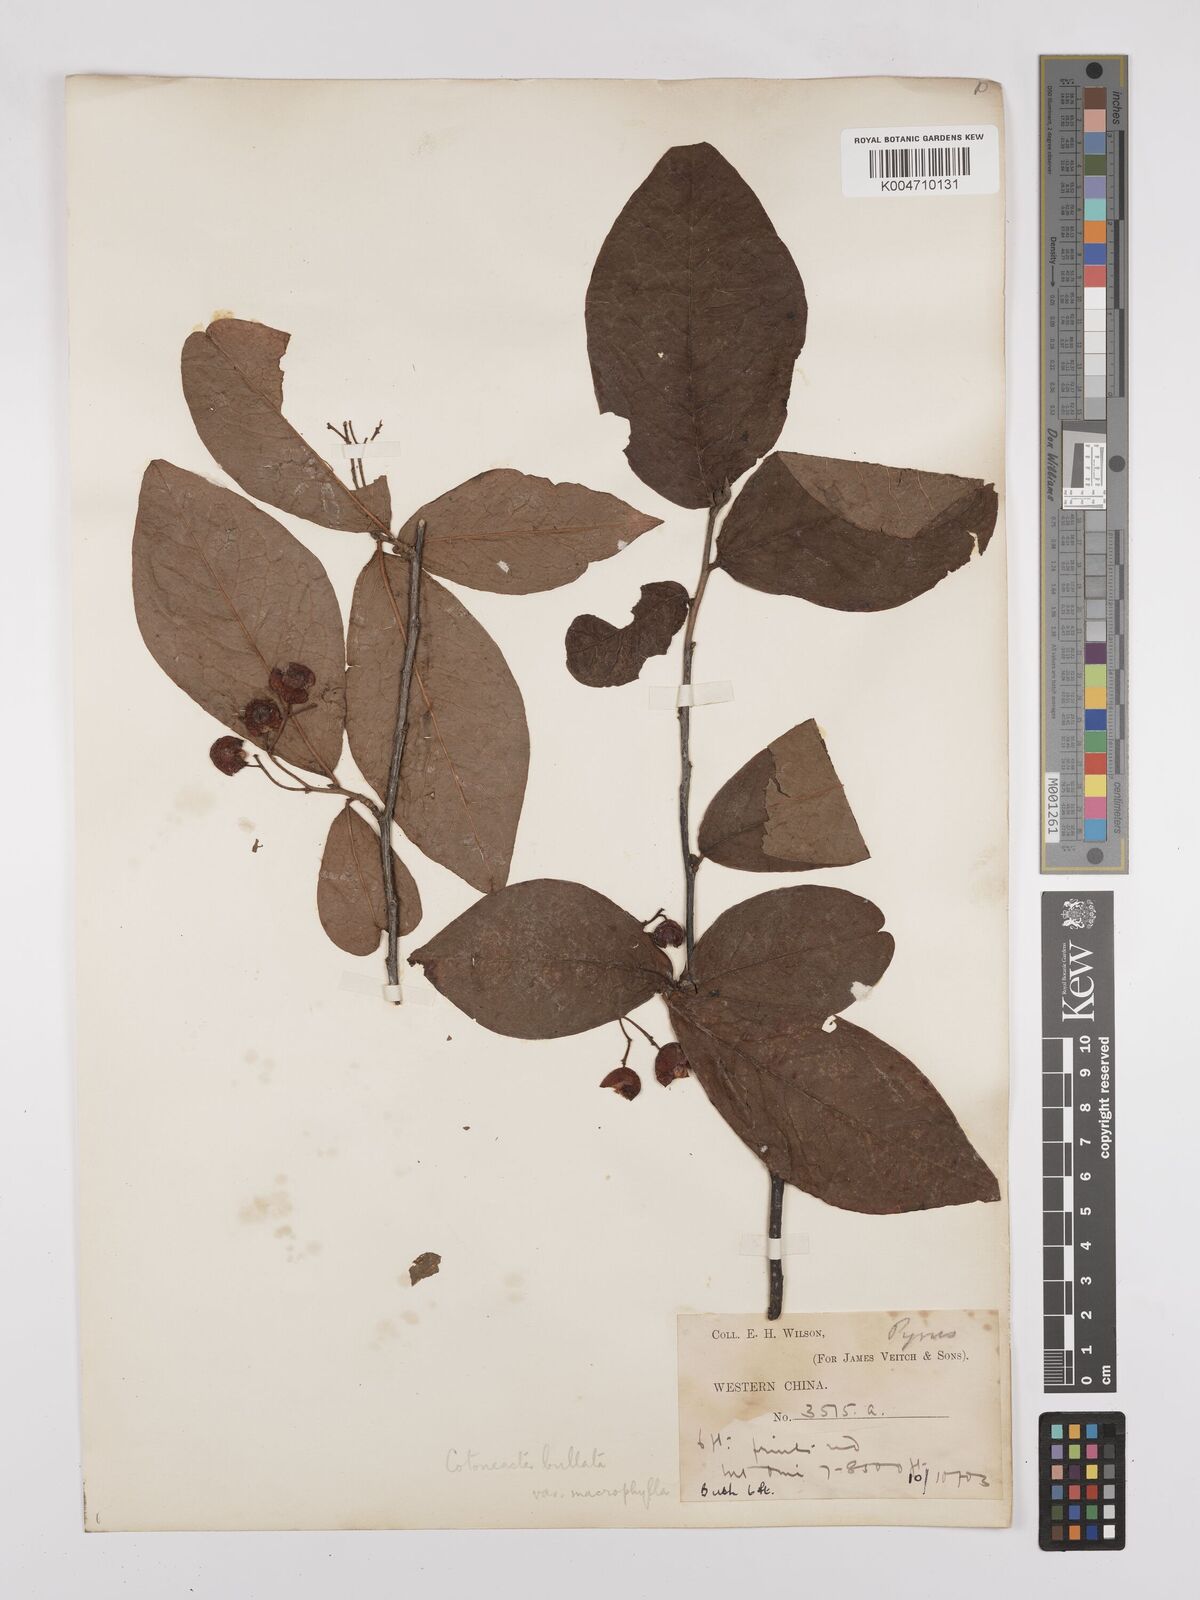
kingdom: Plantae
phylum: Tracheophyta
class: Magnoliopsida
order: Rosales
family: Rosaceae
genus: Cotoneaster
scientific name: Cotoneaster bullatus
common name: Hollyberry cotoneaster
